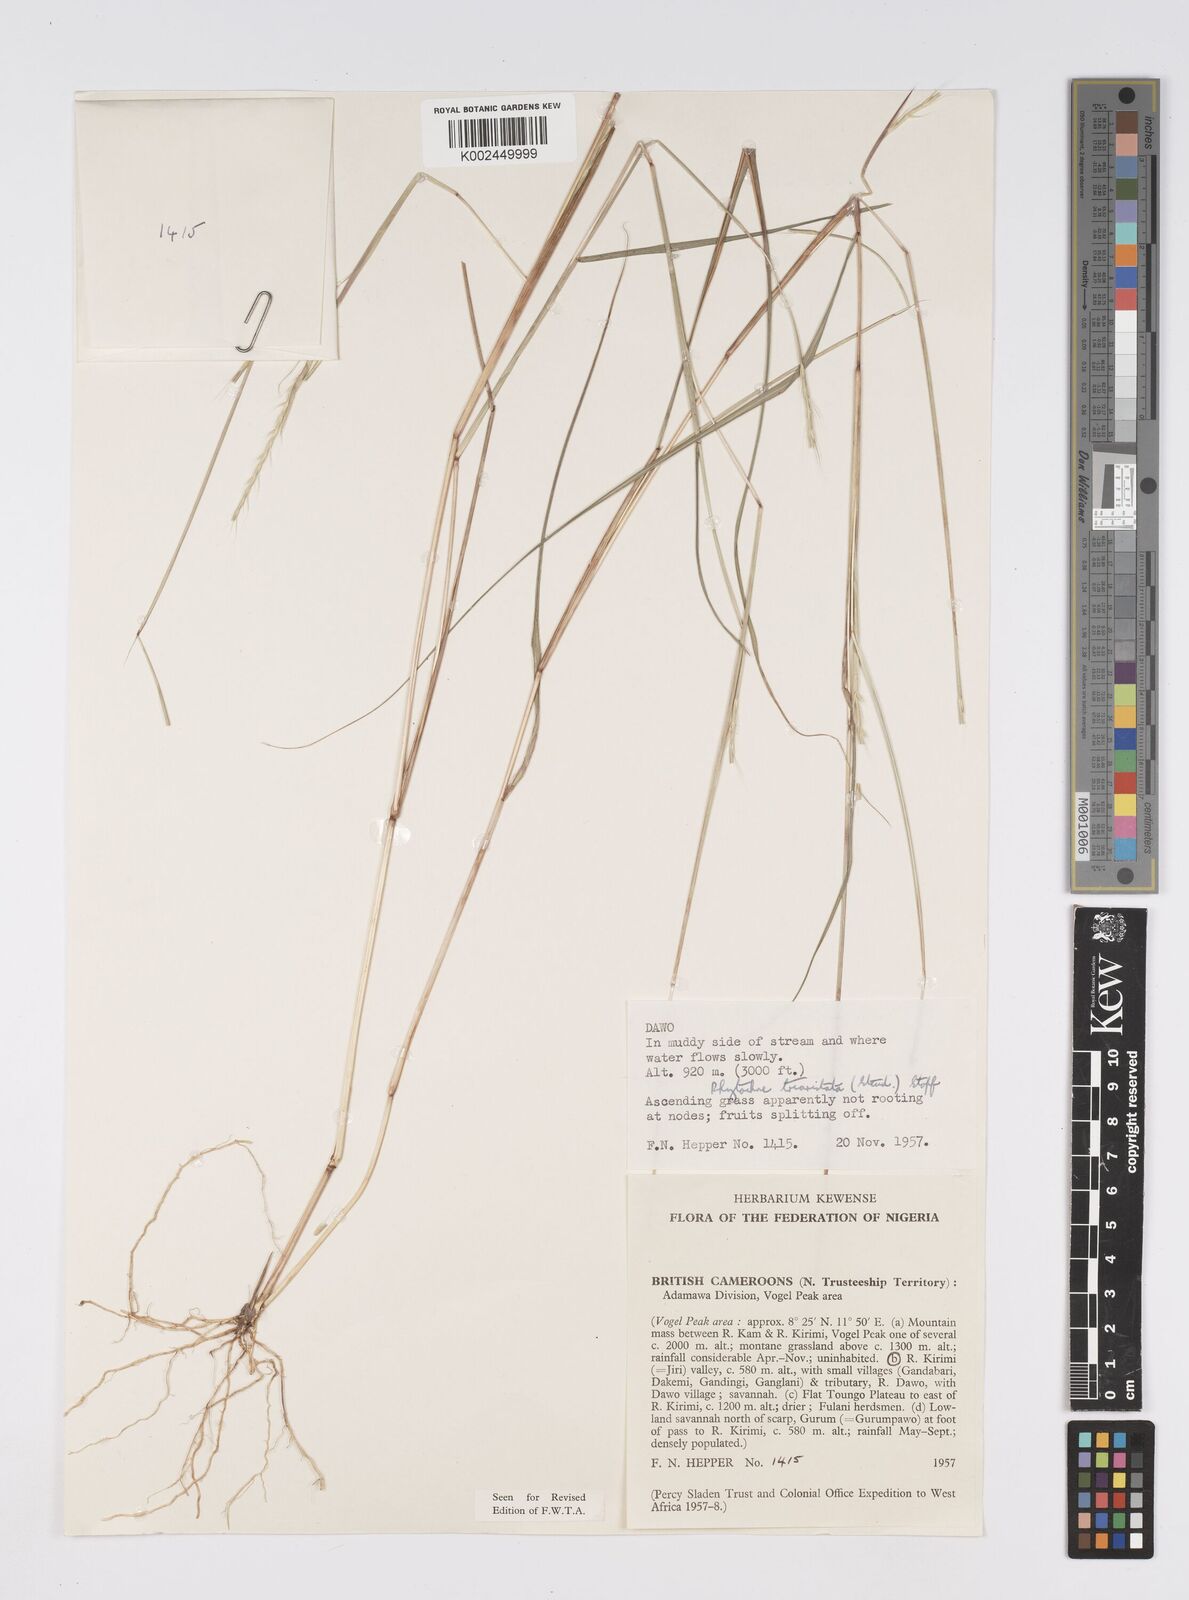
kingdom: Plantae
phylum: Tracheophyta
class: Liliopsida
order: Poales
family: Poaceae
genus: Rhytachne
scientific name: Rhytachne triaristata
